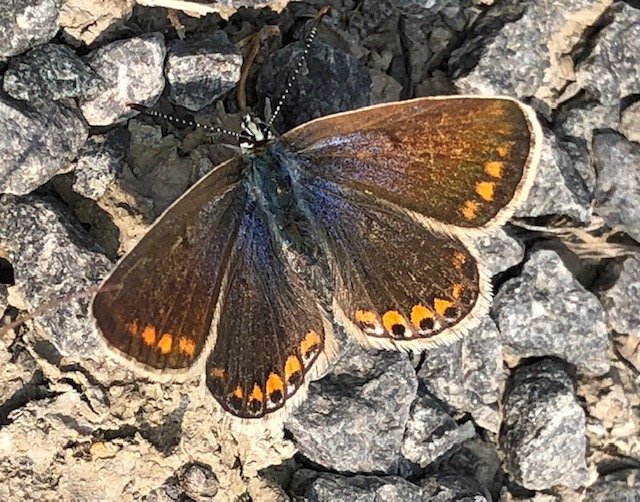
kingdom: Animalia
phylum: Arthropoda
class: Insecta
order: Lepidoptera
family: Lycaenidae
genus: Polyommatus
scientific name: Polyommatus icarus
